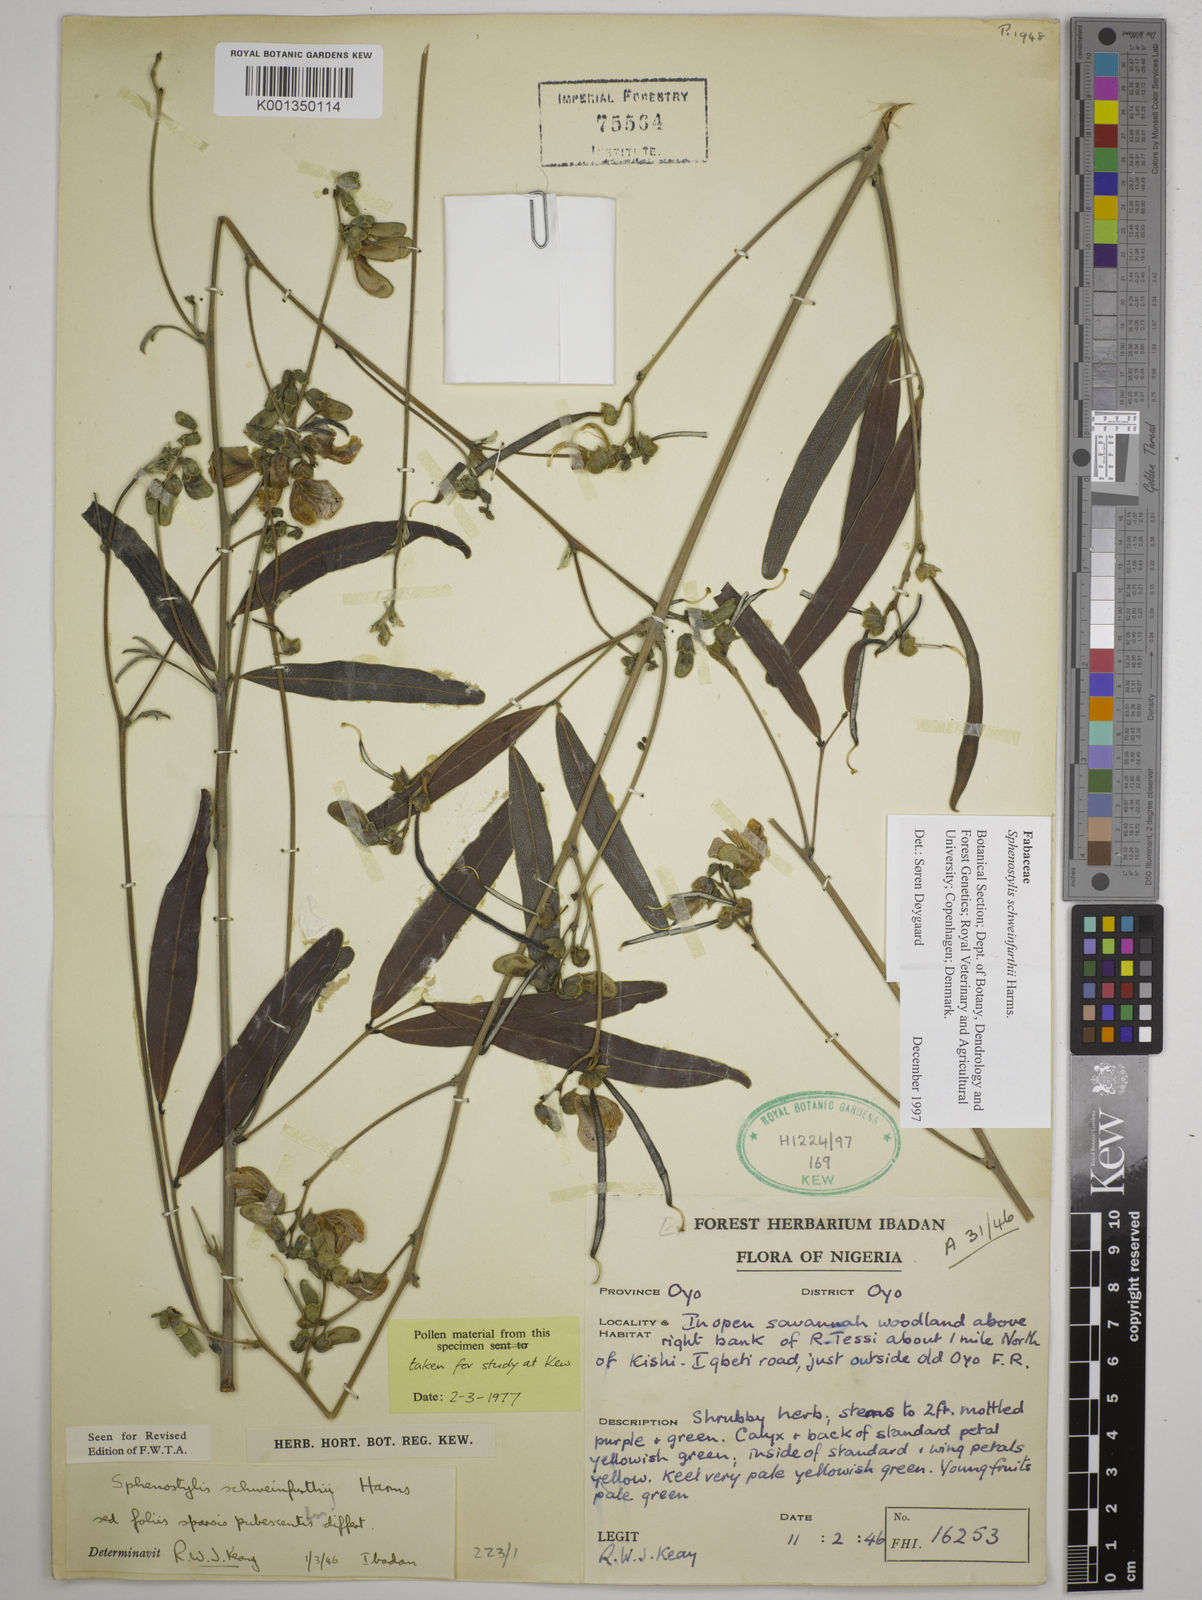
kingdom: Plantae
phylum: Tracheophyta
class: Magnoliopsida
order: Fabales
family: Fabaceae
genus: Sphenostylis
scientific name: Sphenostylis schweinfurthii
